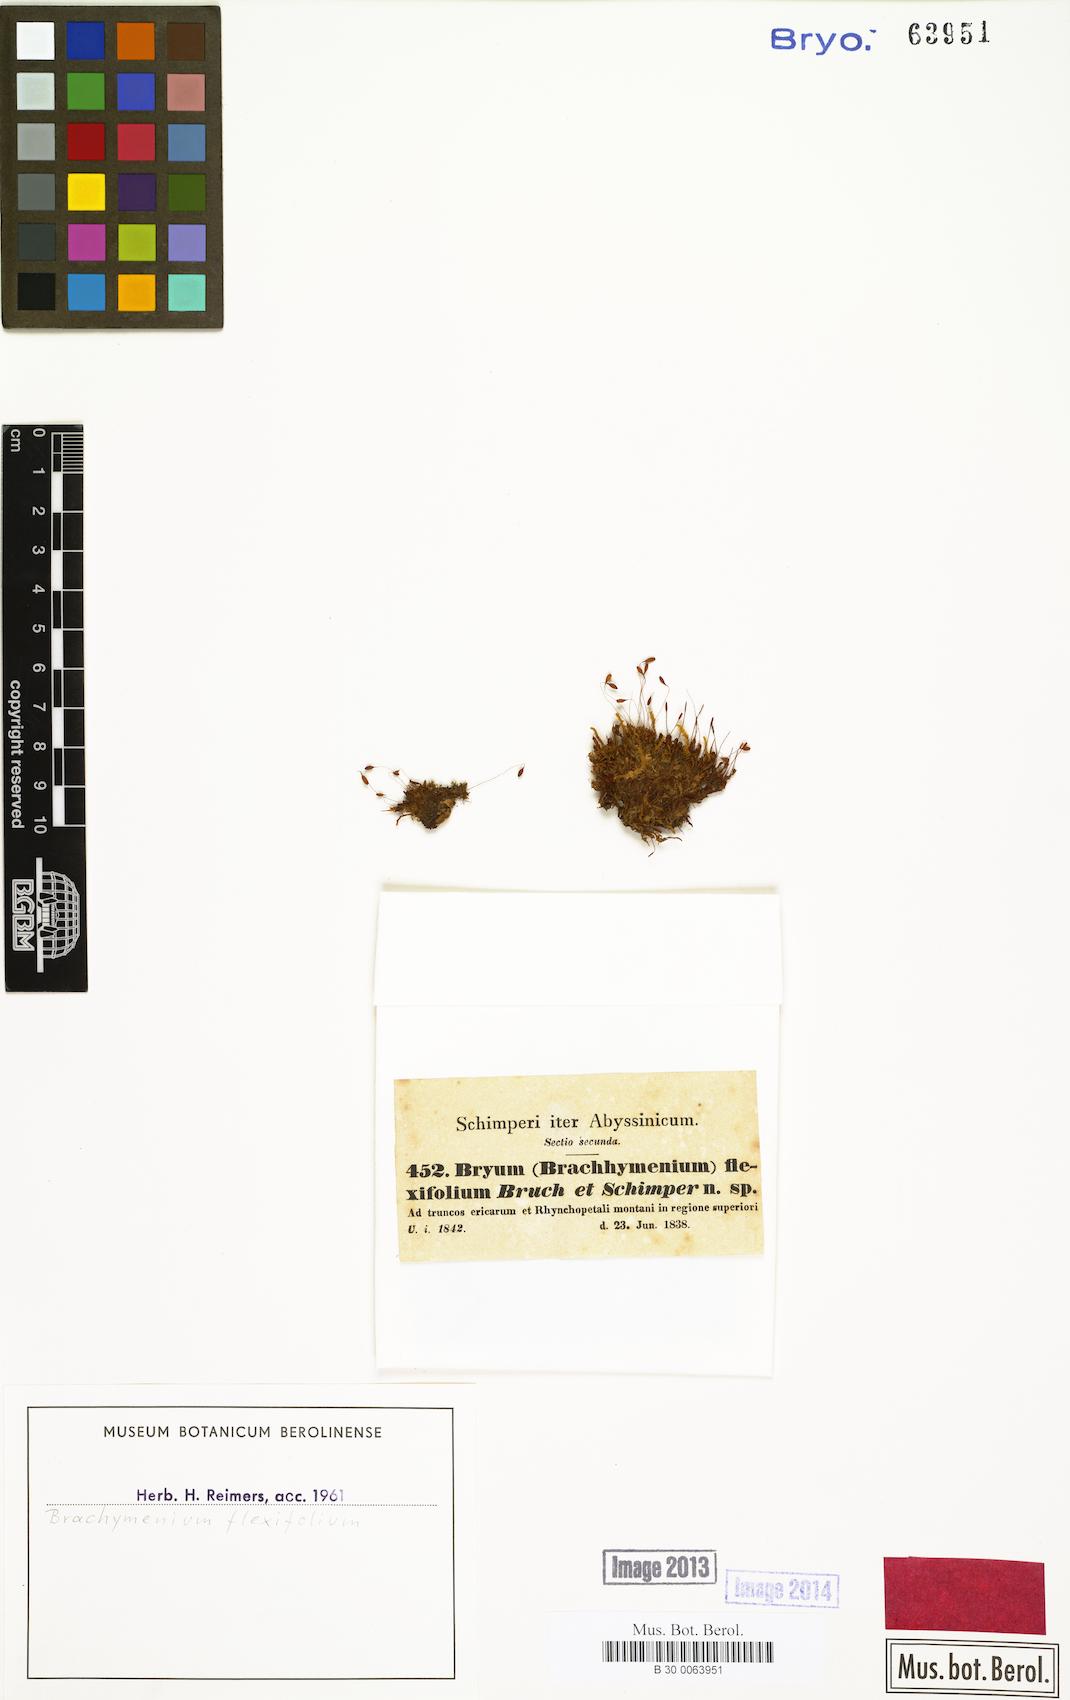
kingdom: Plantae
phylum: Bryophyta
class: Bryopsida
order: Bryales
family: Bryaceae
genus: Brachymenium
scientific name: Brachymenium flexifolium
